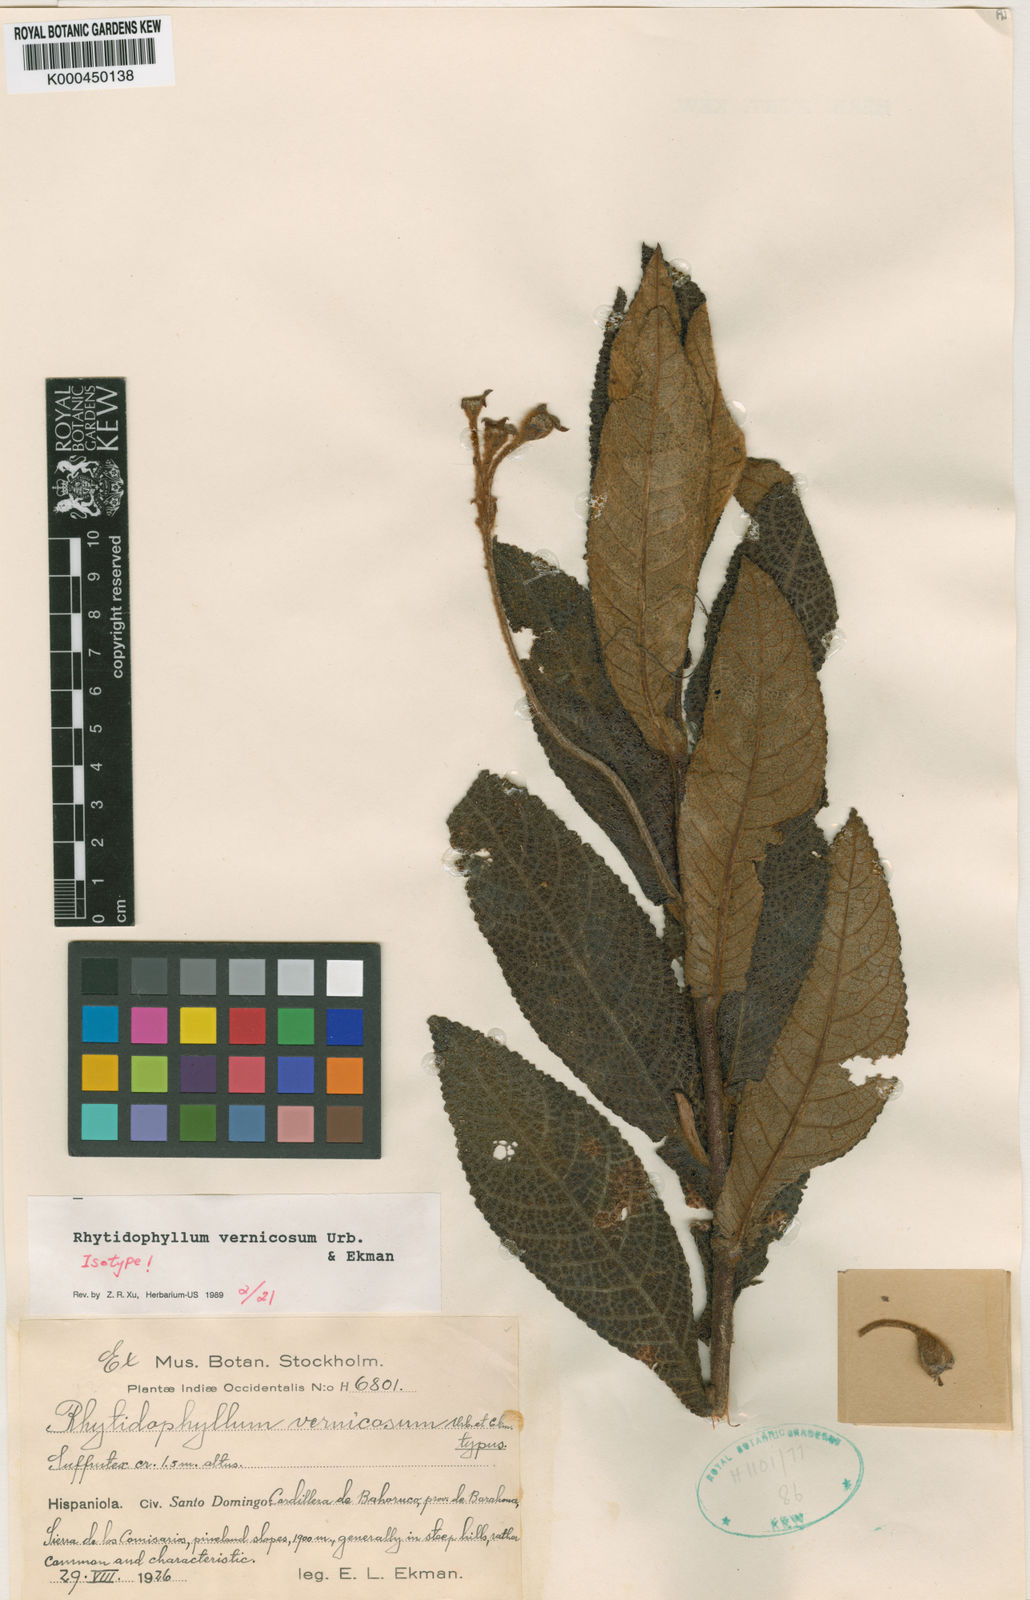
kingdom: Plantae
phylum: Tracheophyta
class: Magnoliopsida
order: Lamiales
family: Gesneriaceae
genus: Rhytidophyllum
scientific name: Rhytidophyllum vernicosum
